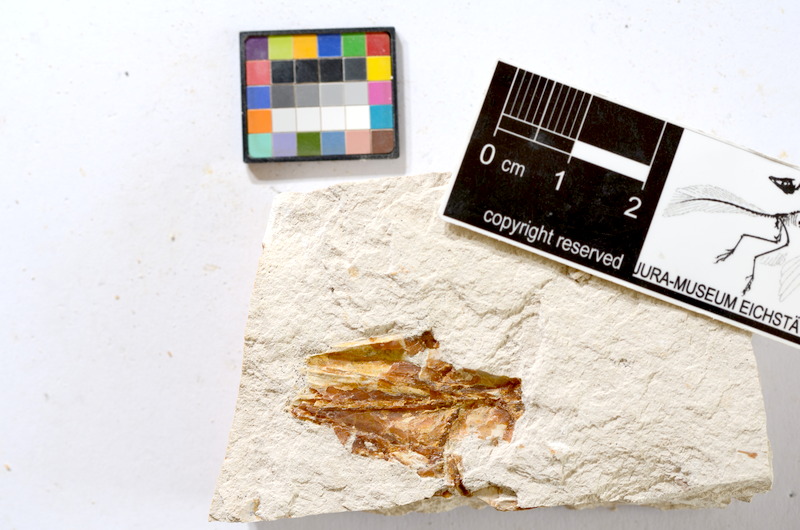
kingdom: Animalia
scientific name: Animalia
